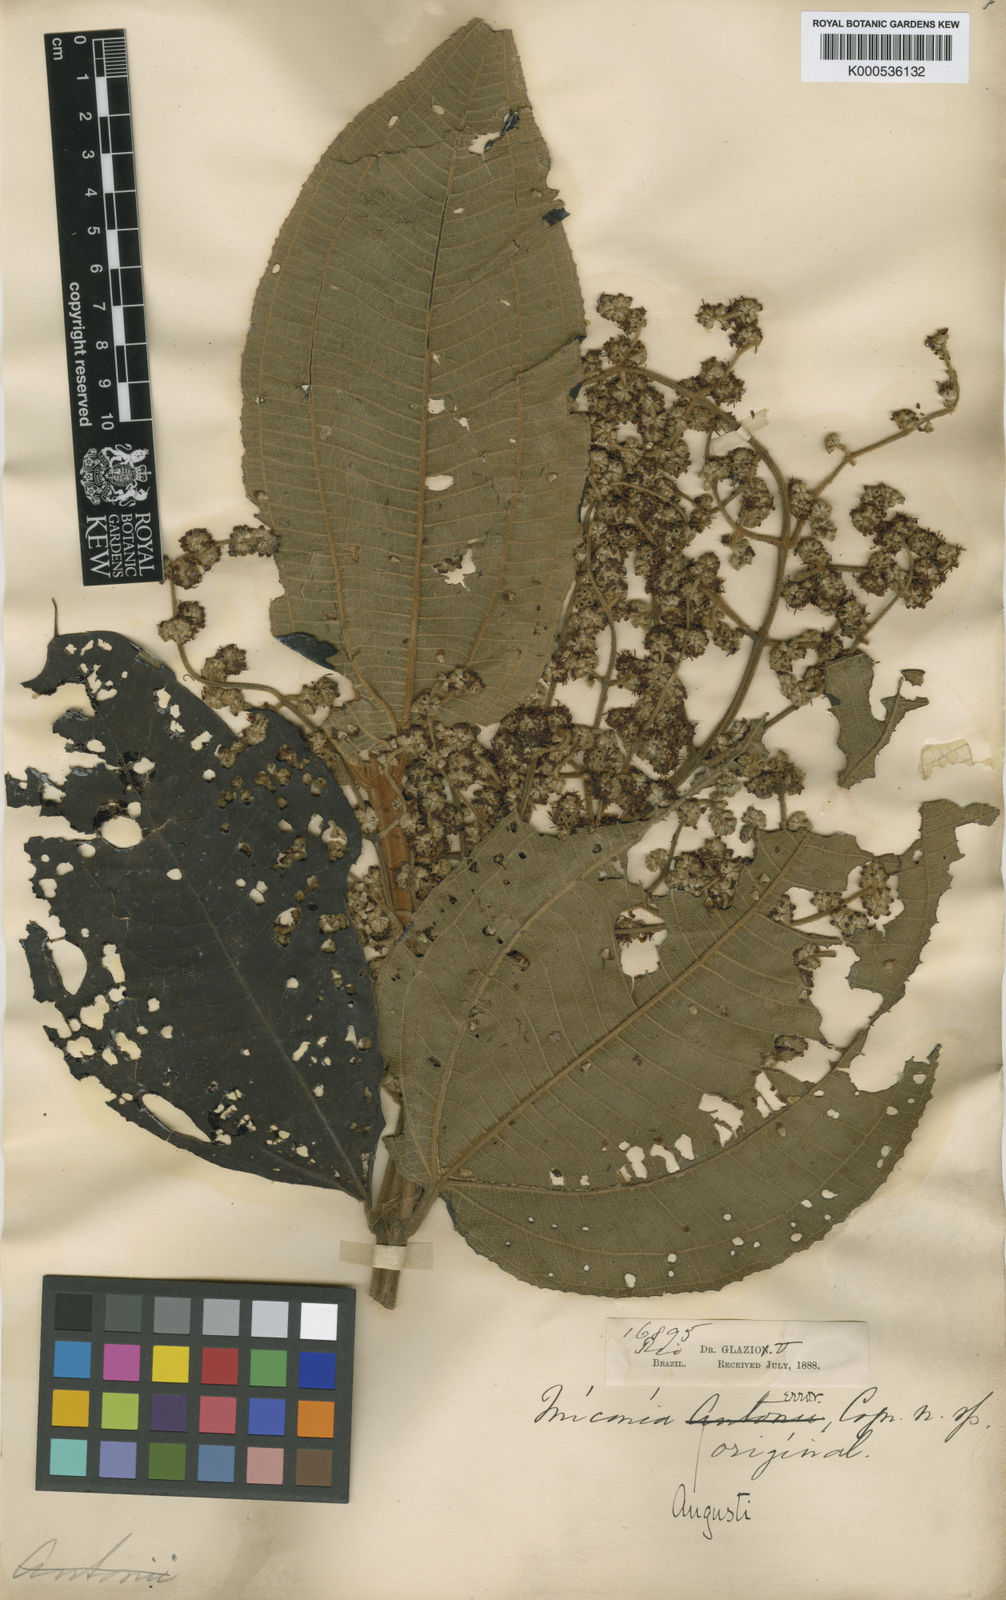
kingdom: Plantae
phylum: Tracheophyta
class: Magnoliopsida
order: Myrtales
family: Melastomataceae
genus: Miconia
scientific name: Miconia fasciculata
